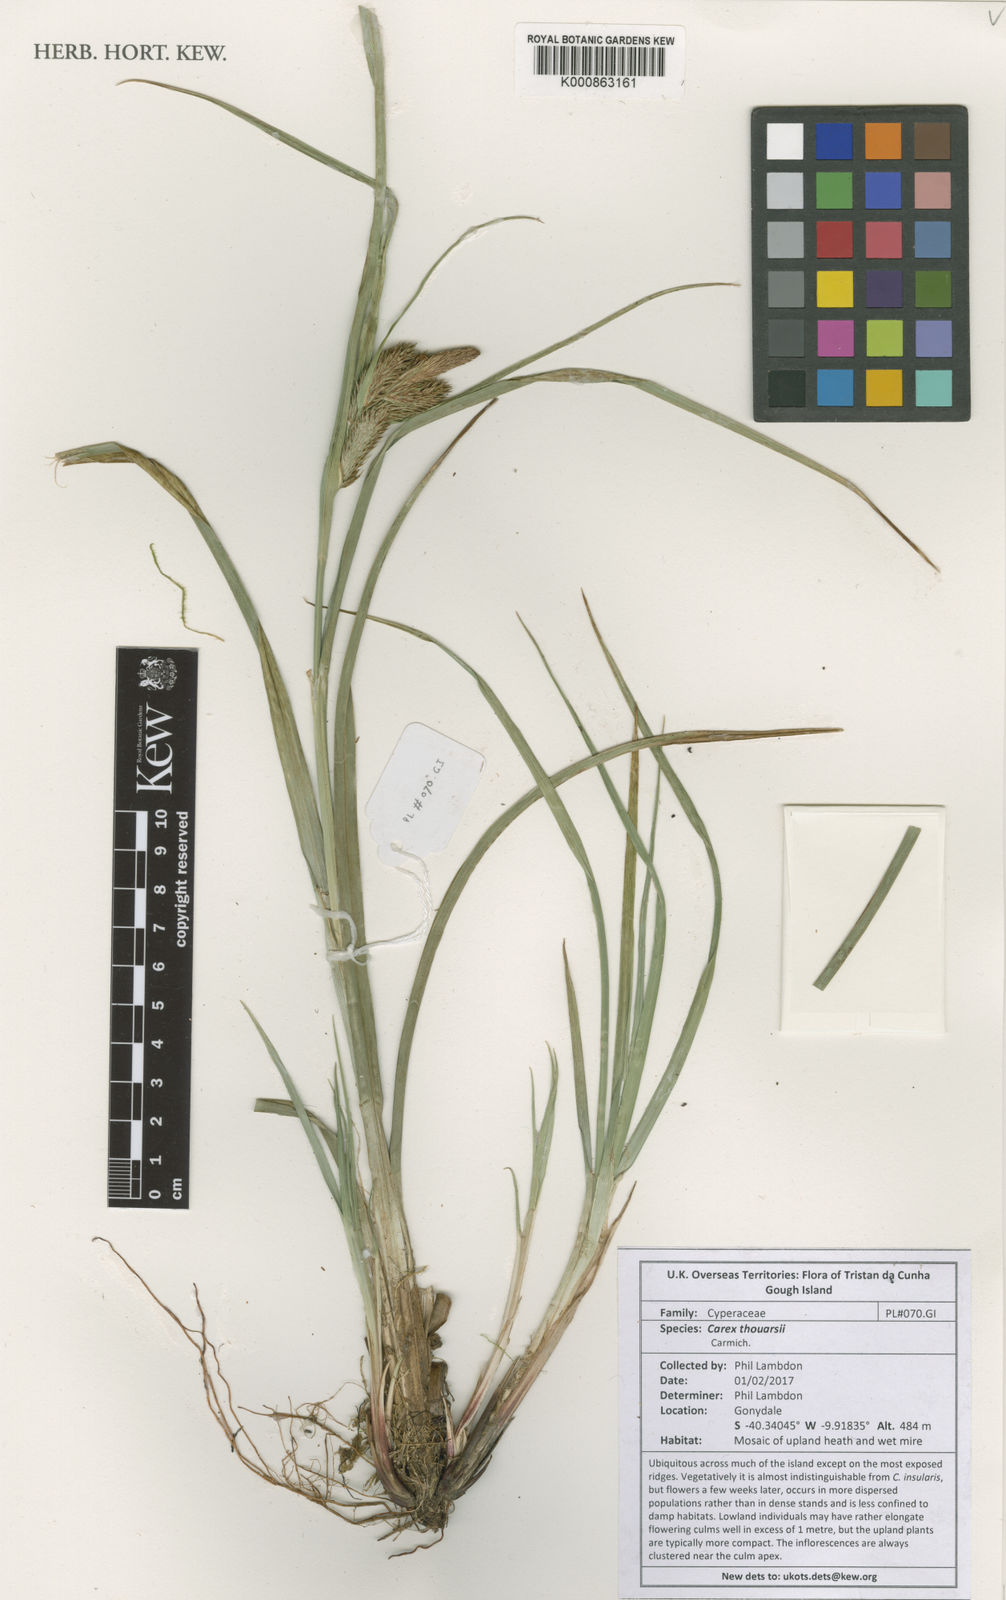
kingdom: Plantae
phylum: Tracheophyta
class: Liliopsida
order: Poales
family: Cyperaceae
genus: Carex
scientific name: Carex thouarsii
